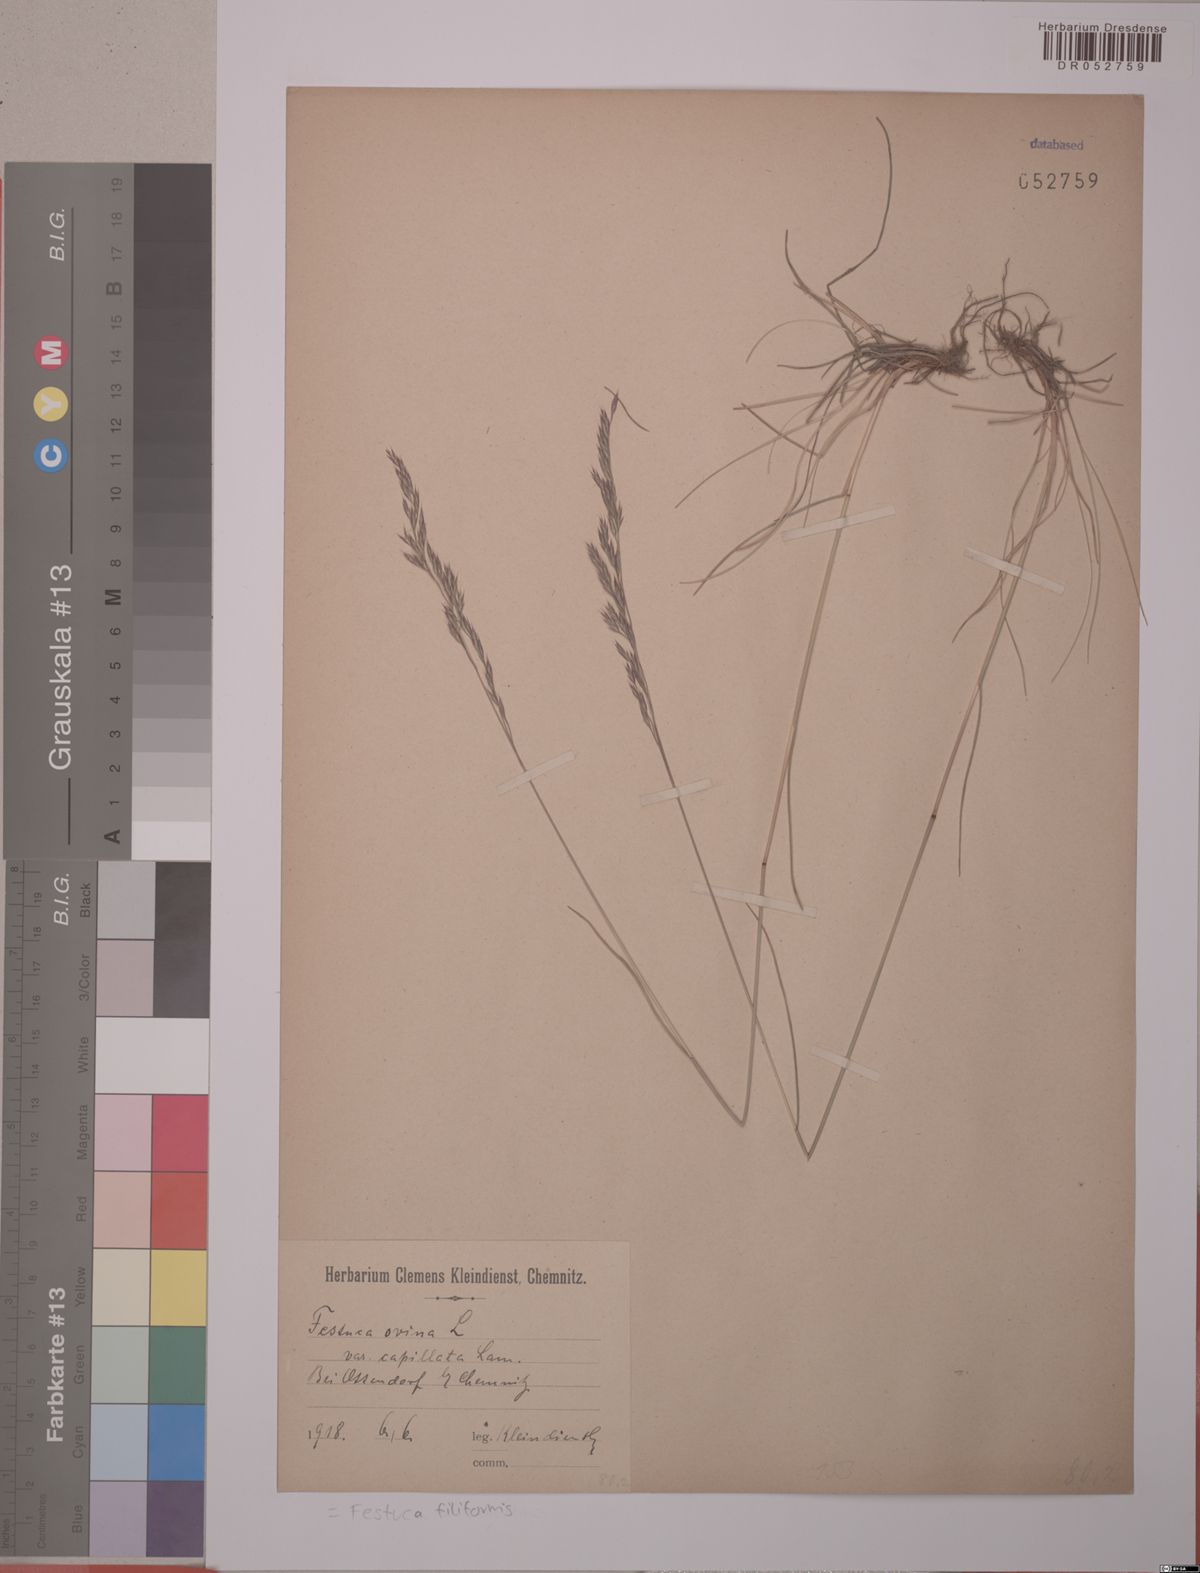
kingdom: Plantae
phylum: Tracheophyta
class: Liliopsida
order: Poales
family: Poaceae
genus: Festuca
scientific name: Festuca filiformis
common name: Fine-leaved sheep's-fescue
